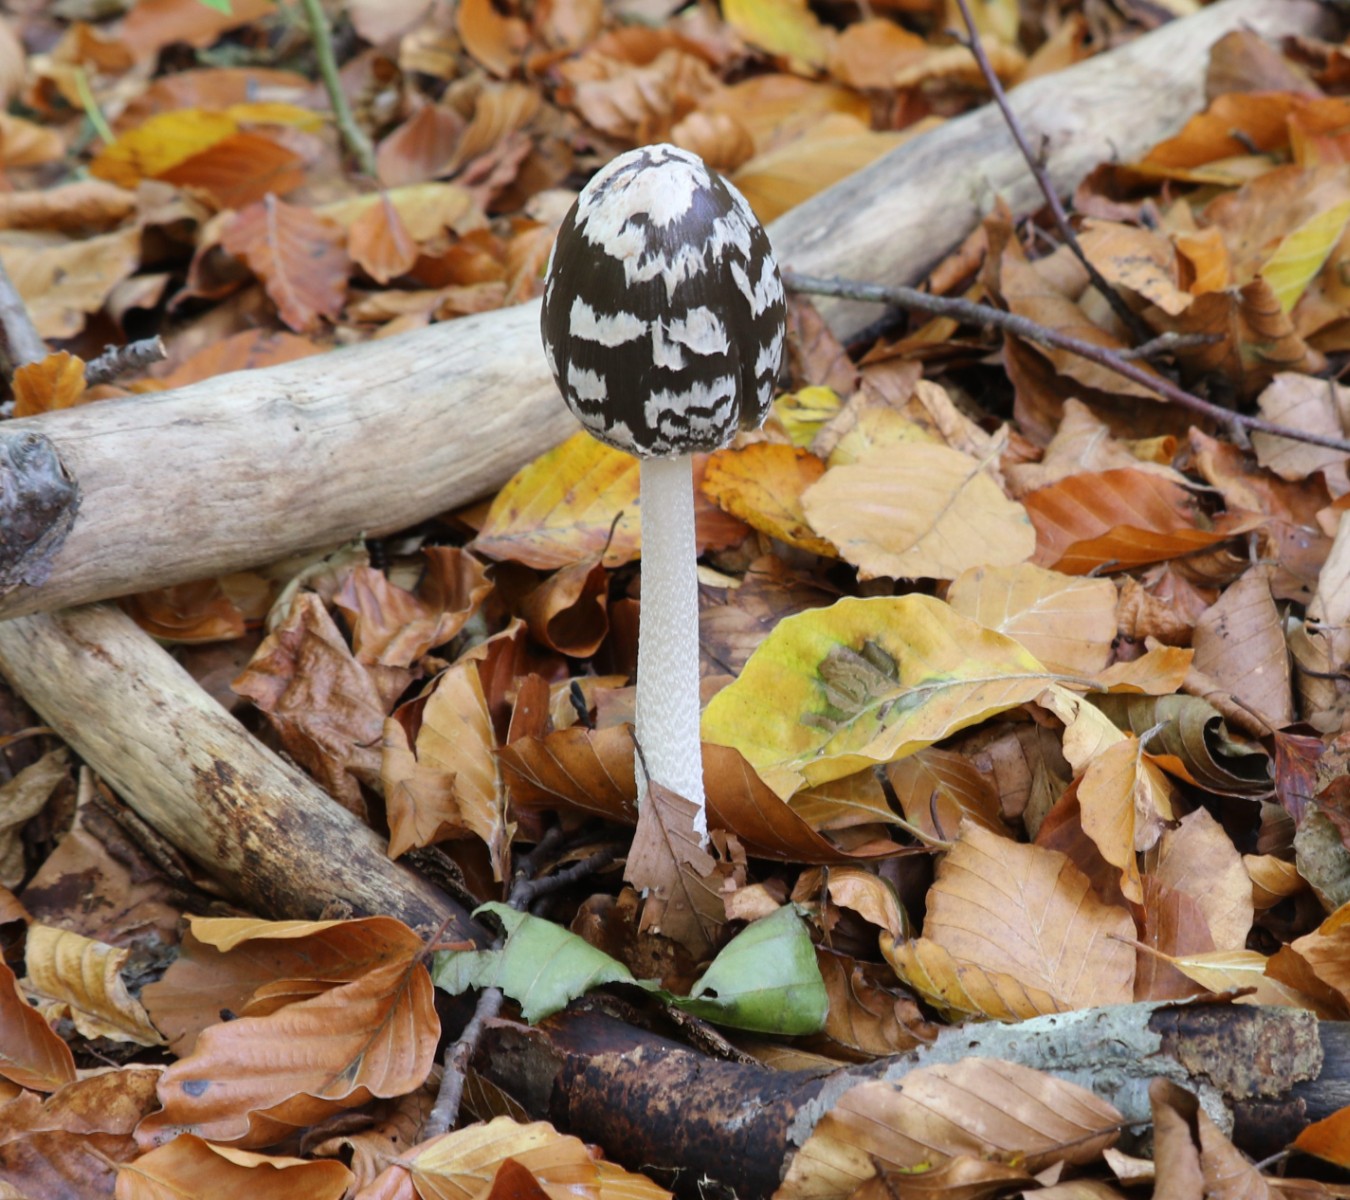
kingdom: Fungi
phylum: Basidiomycota
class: Agaricomycetes
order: Agaricales
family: Psathyrellaceae
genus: Coprinopsis
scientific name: Coprinopsis picacea
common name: skade-blækhat
